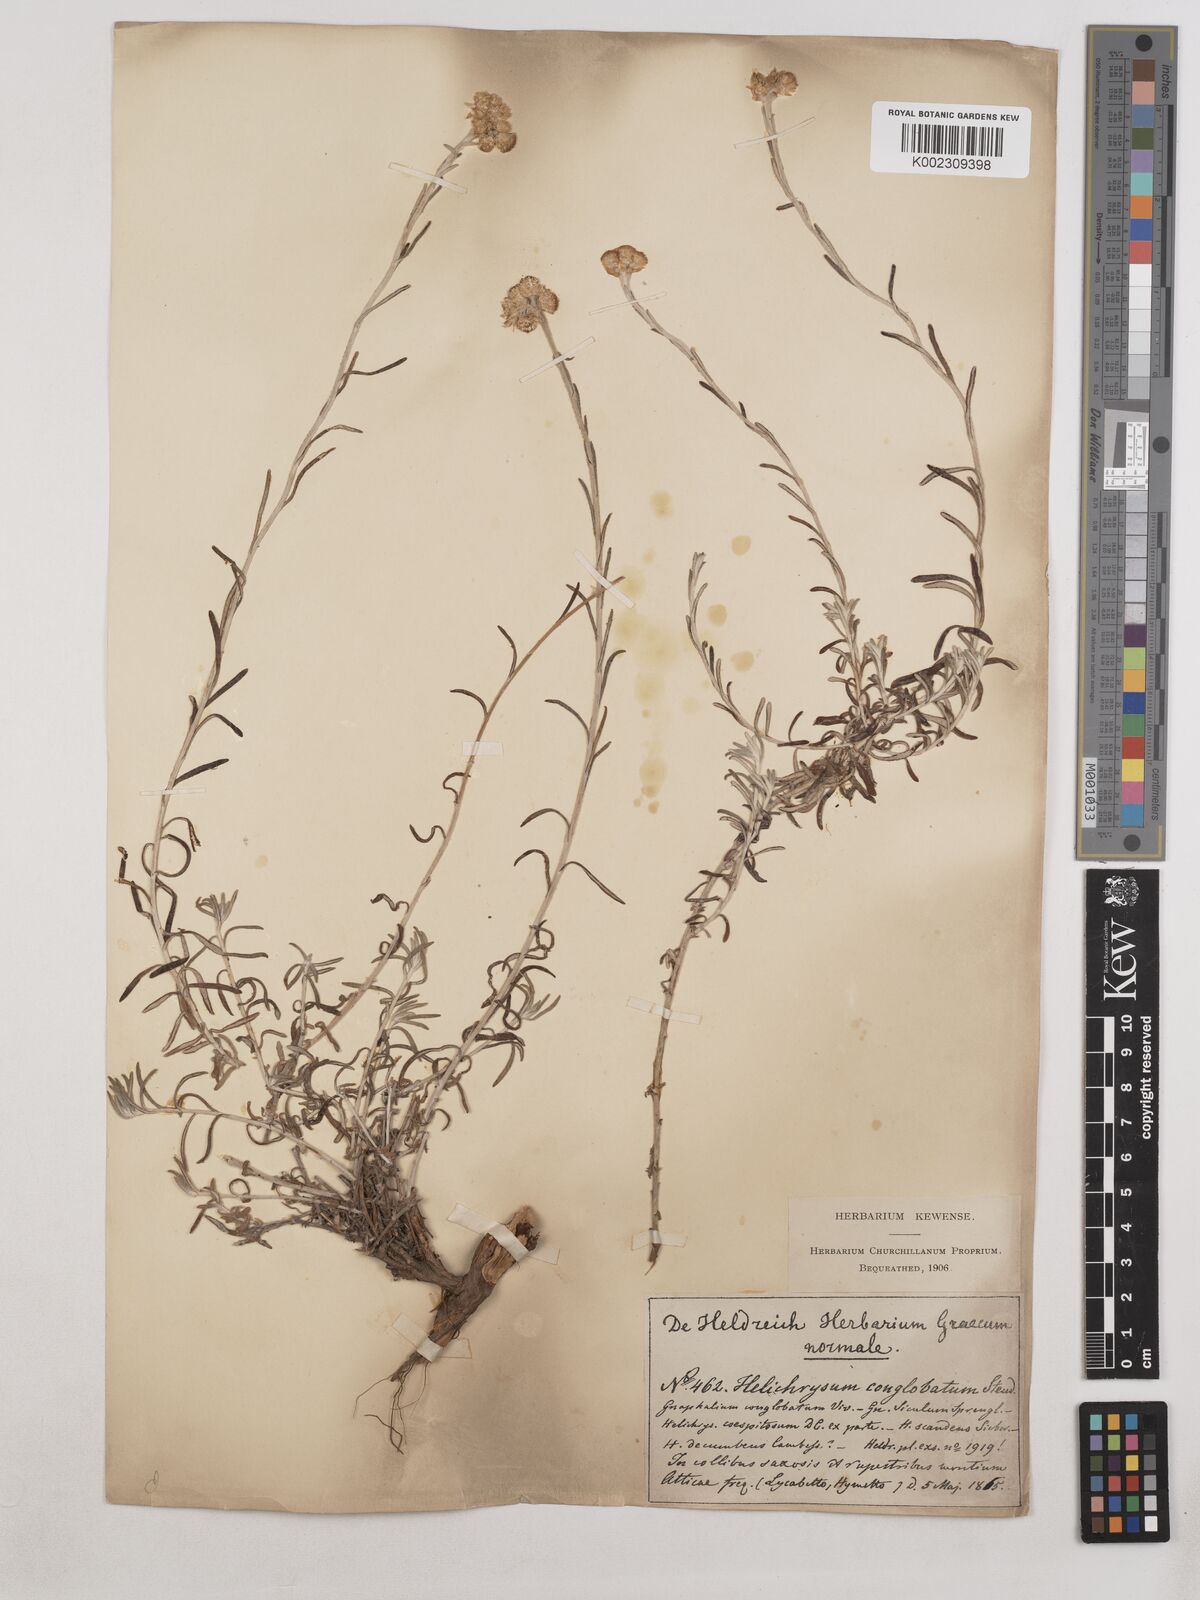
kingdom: Plantae
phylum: Tracheophyta
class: Magnoliopsida
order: Asterales
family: Asteraceae
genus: Helichrysum
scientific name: Helichrysum stoechas
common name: Goldilocks
